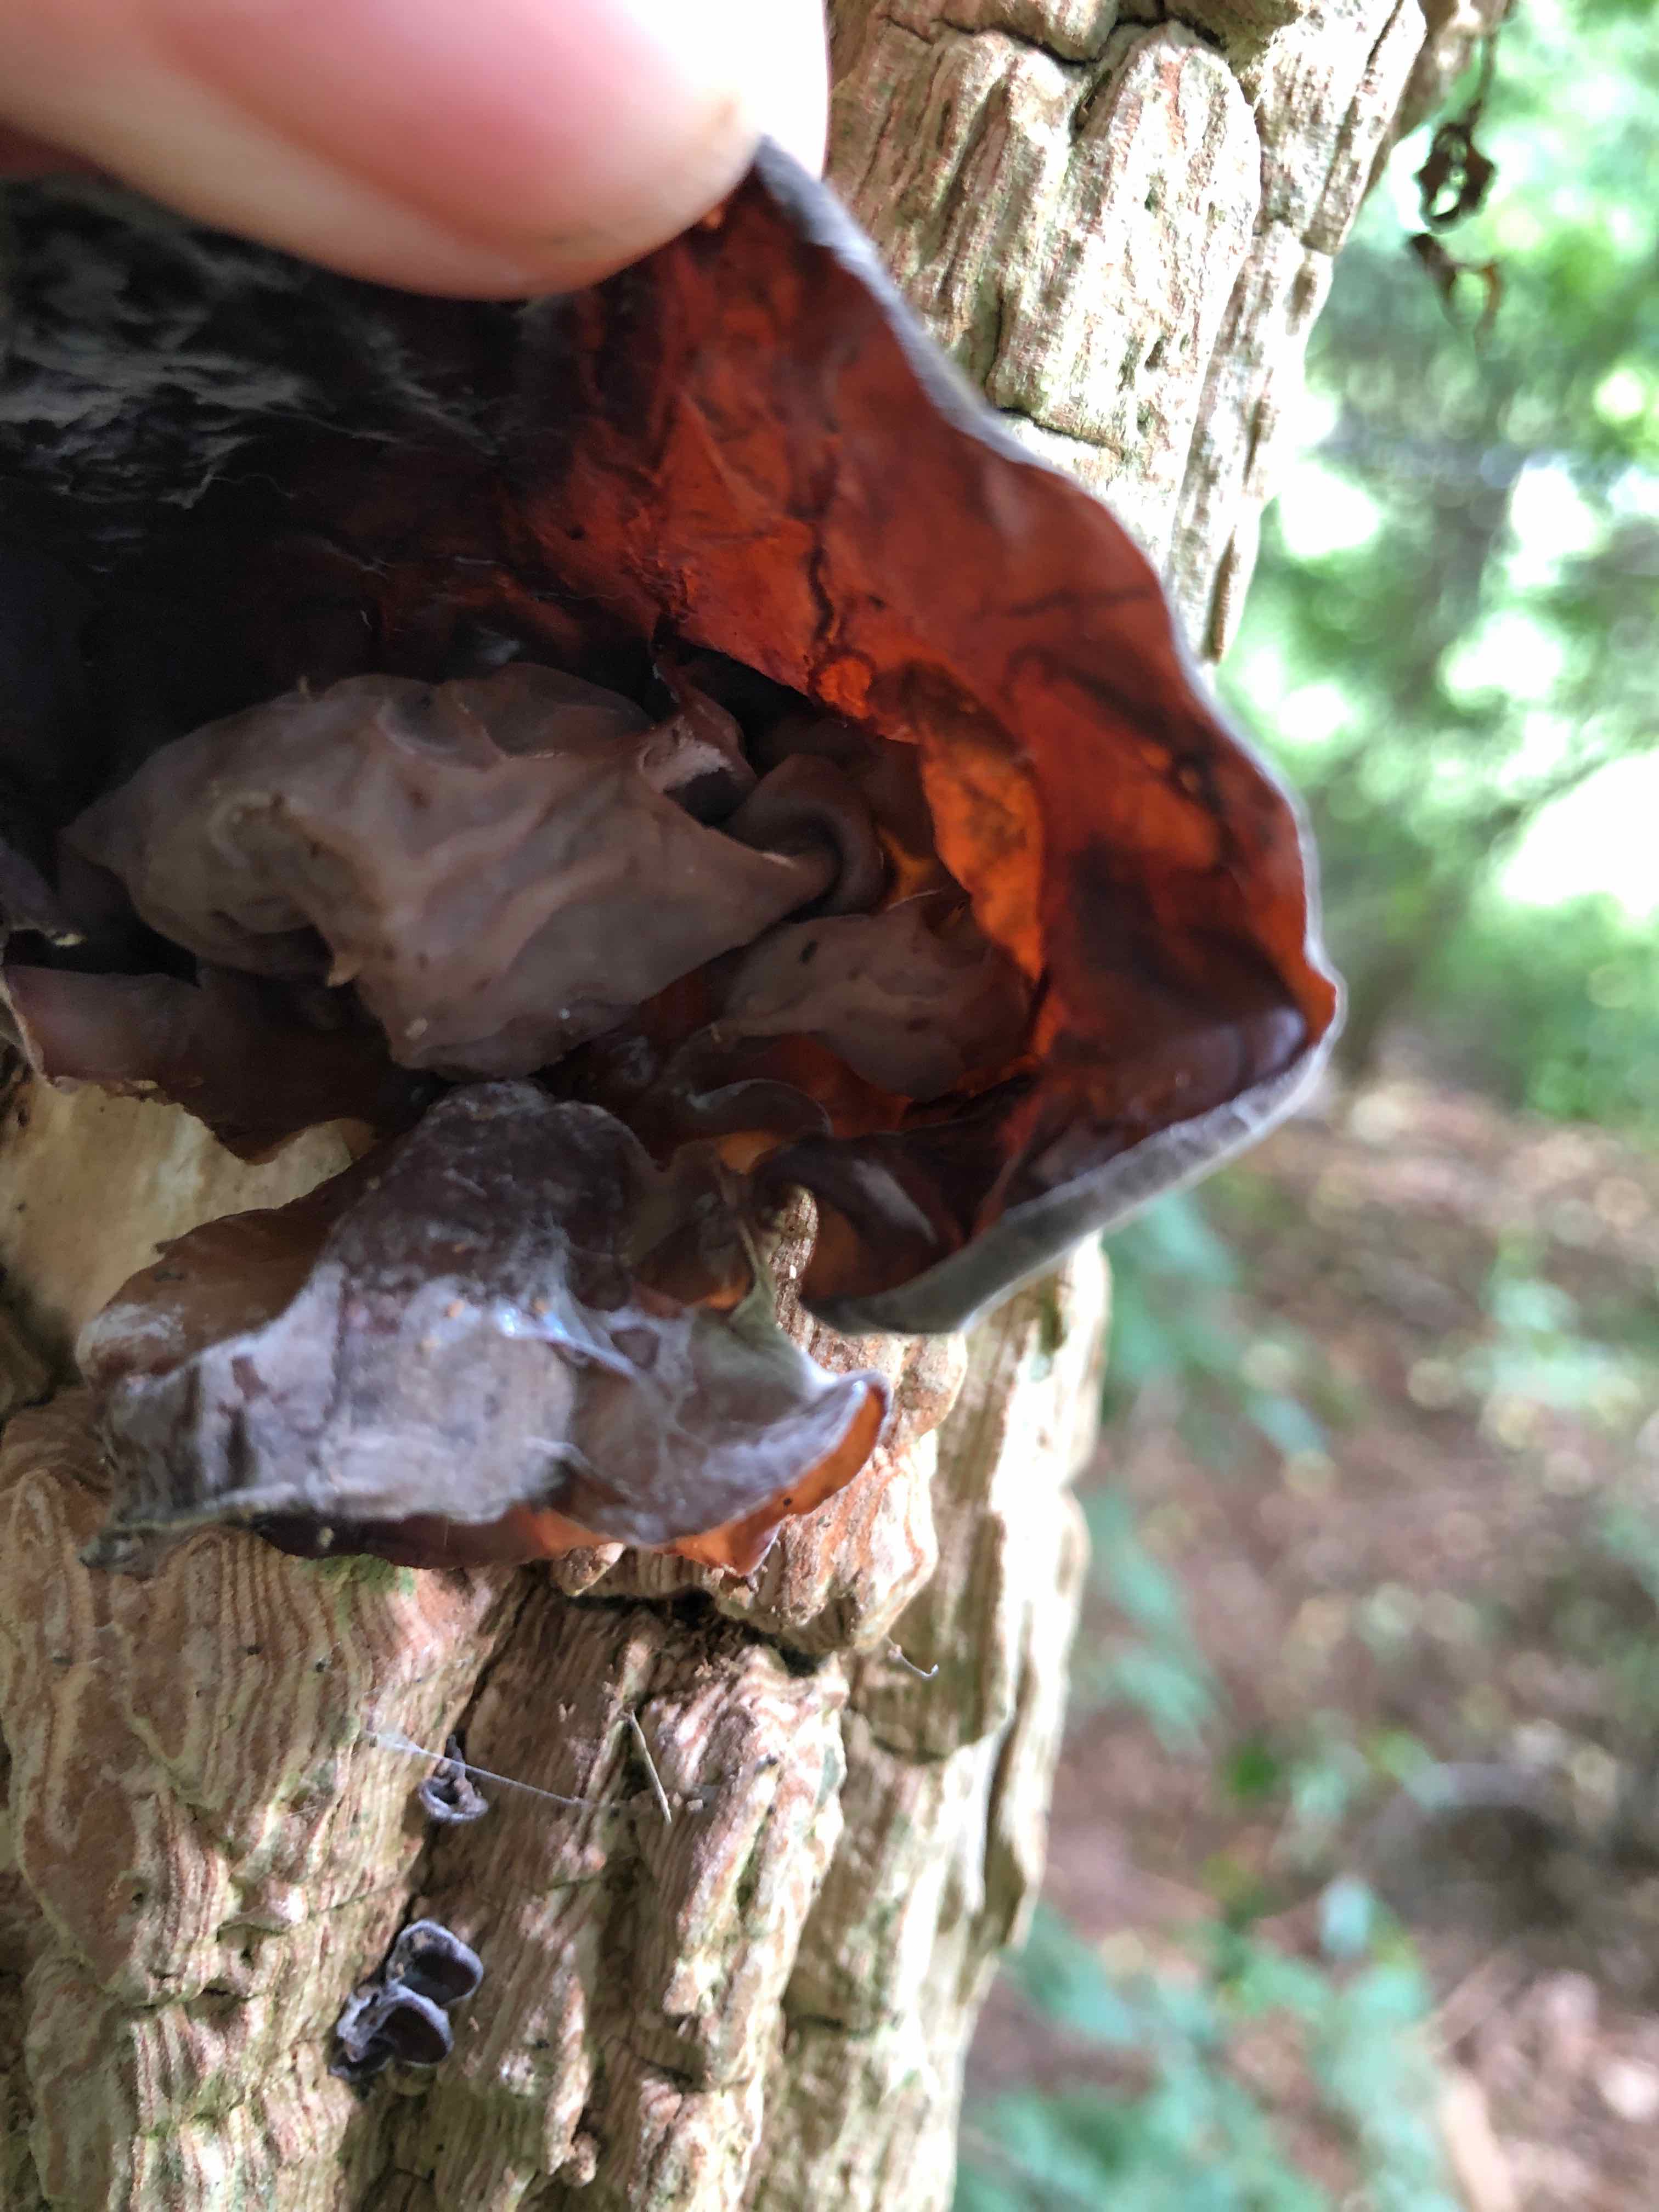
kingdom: Fungi
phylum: Basidiomycota
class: Agaricomycetes
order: Auriculariales
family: Auriculariaceae
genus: Auricularia
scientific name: Auricularia auricula-judae
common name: almindelig judasøre
